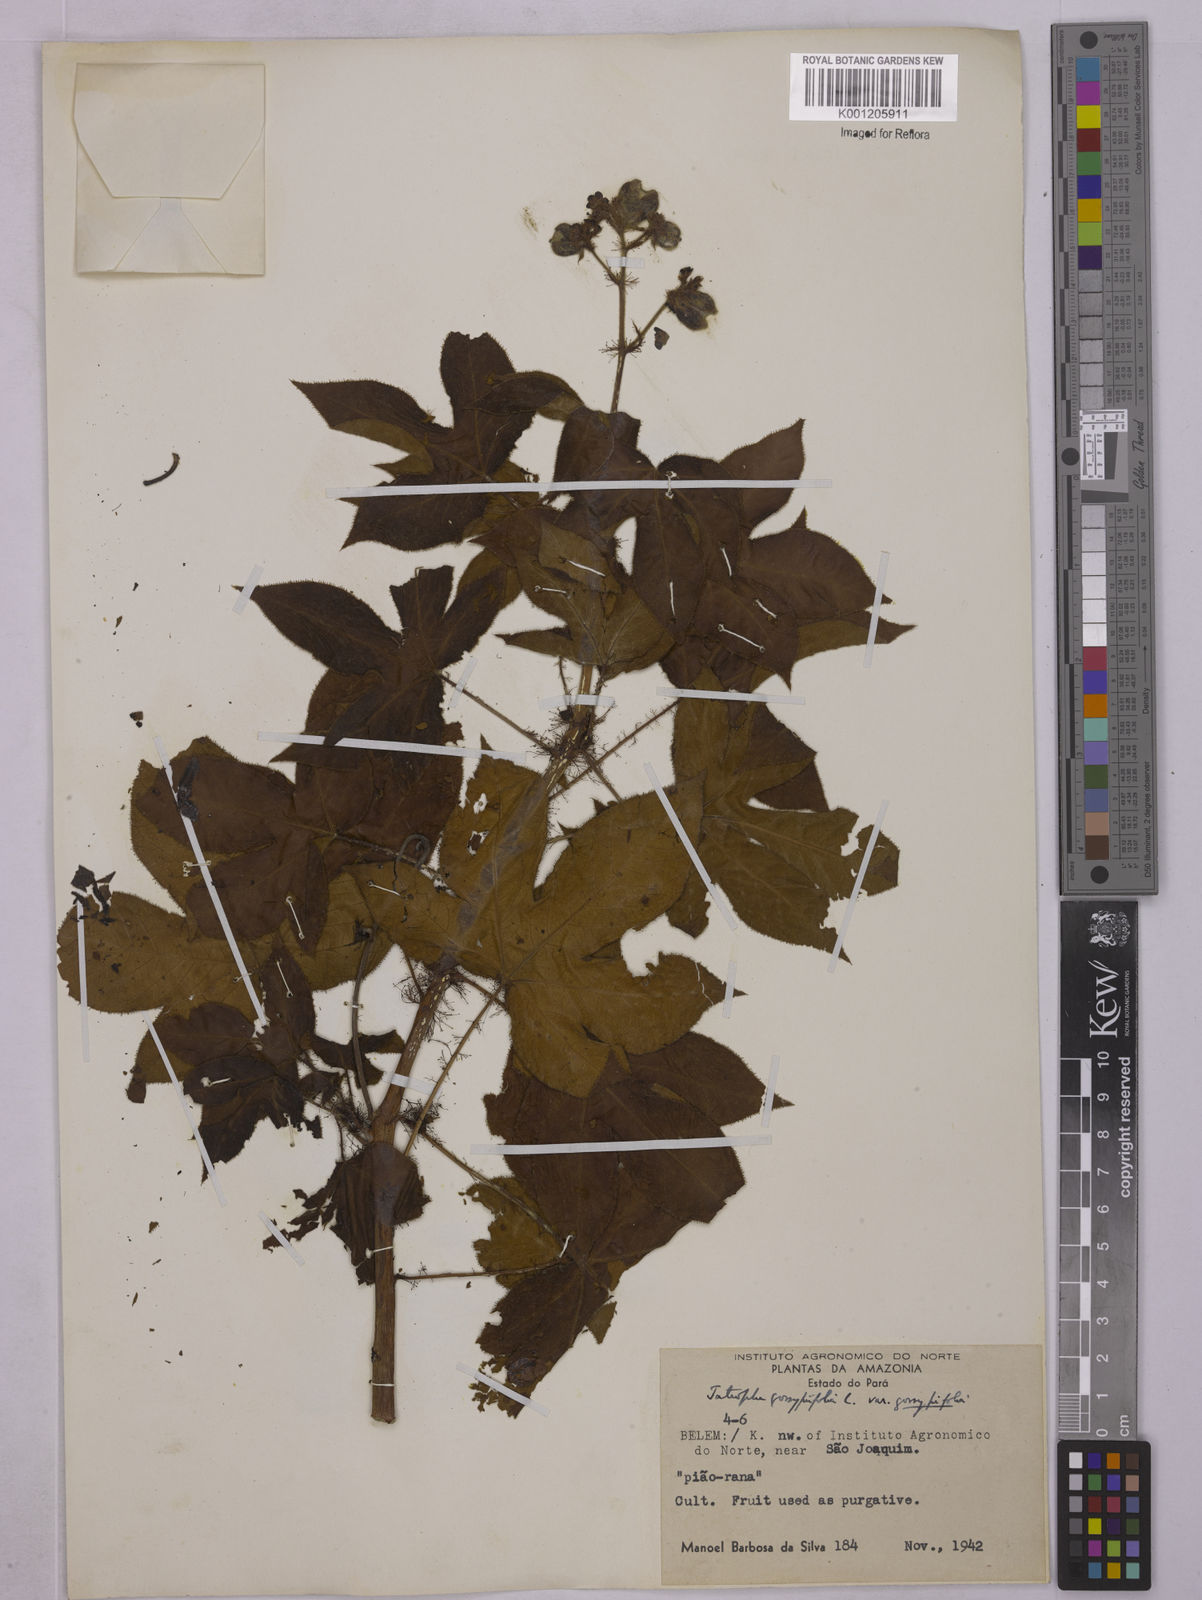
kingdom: Plantae
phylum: Tracheophyta
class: Magnoliopsida
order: Malpighiales
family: Euphorbiaceae
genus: Jatropha
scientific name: Jatropha gossypiifolia
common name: Bellyache bush
